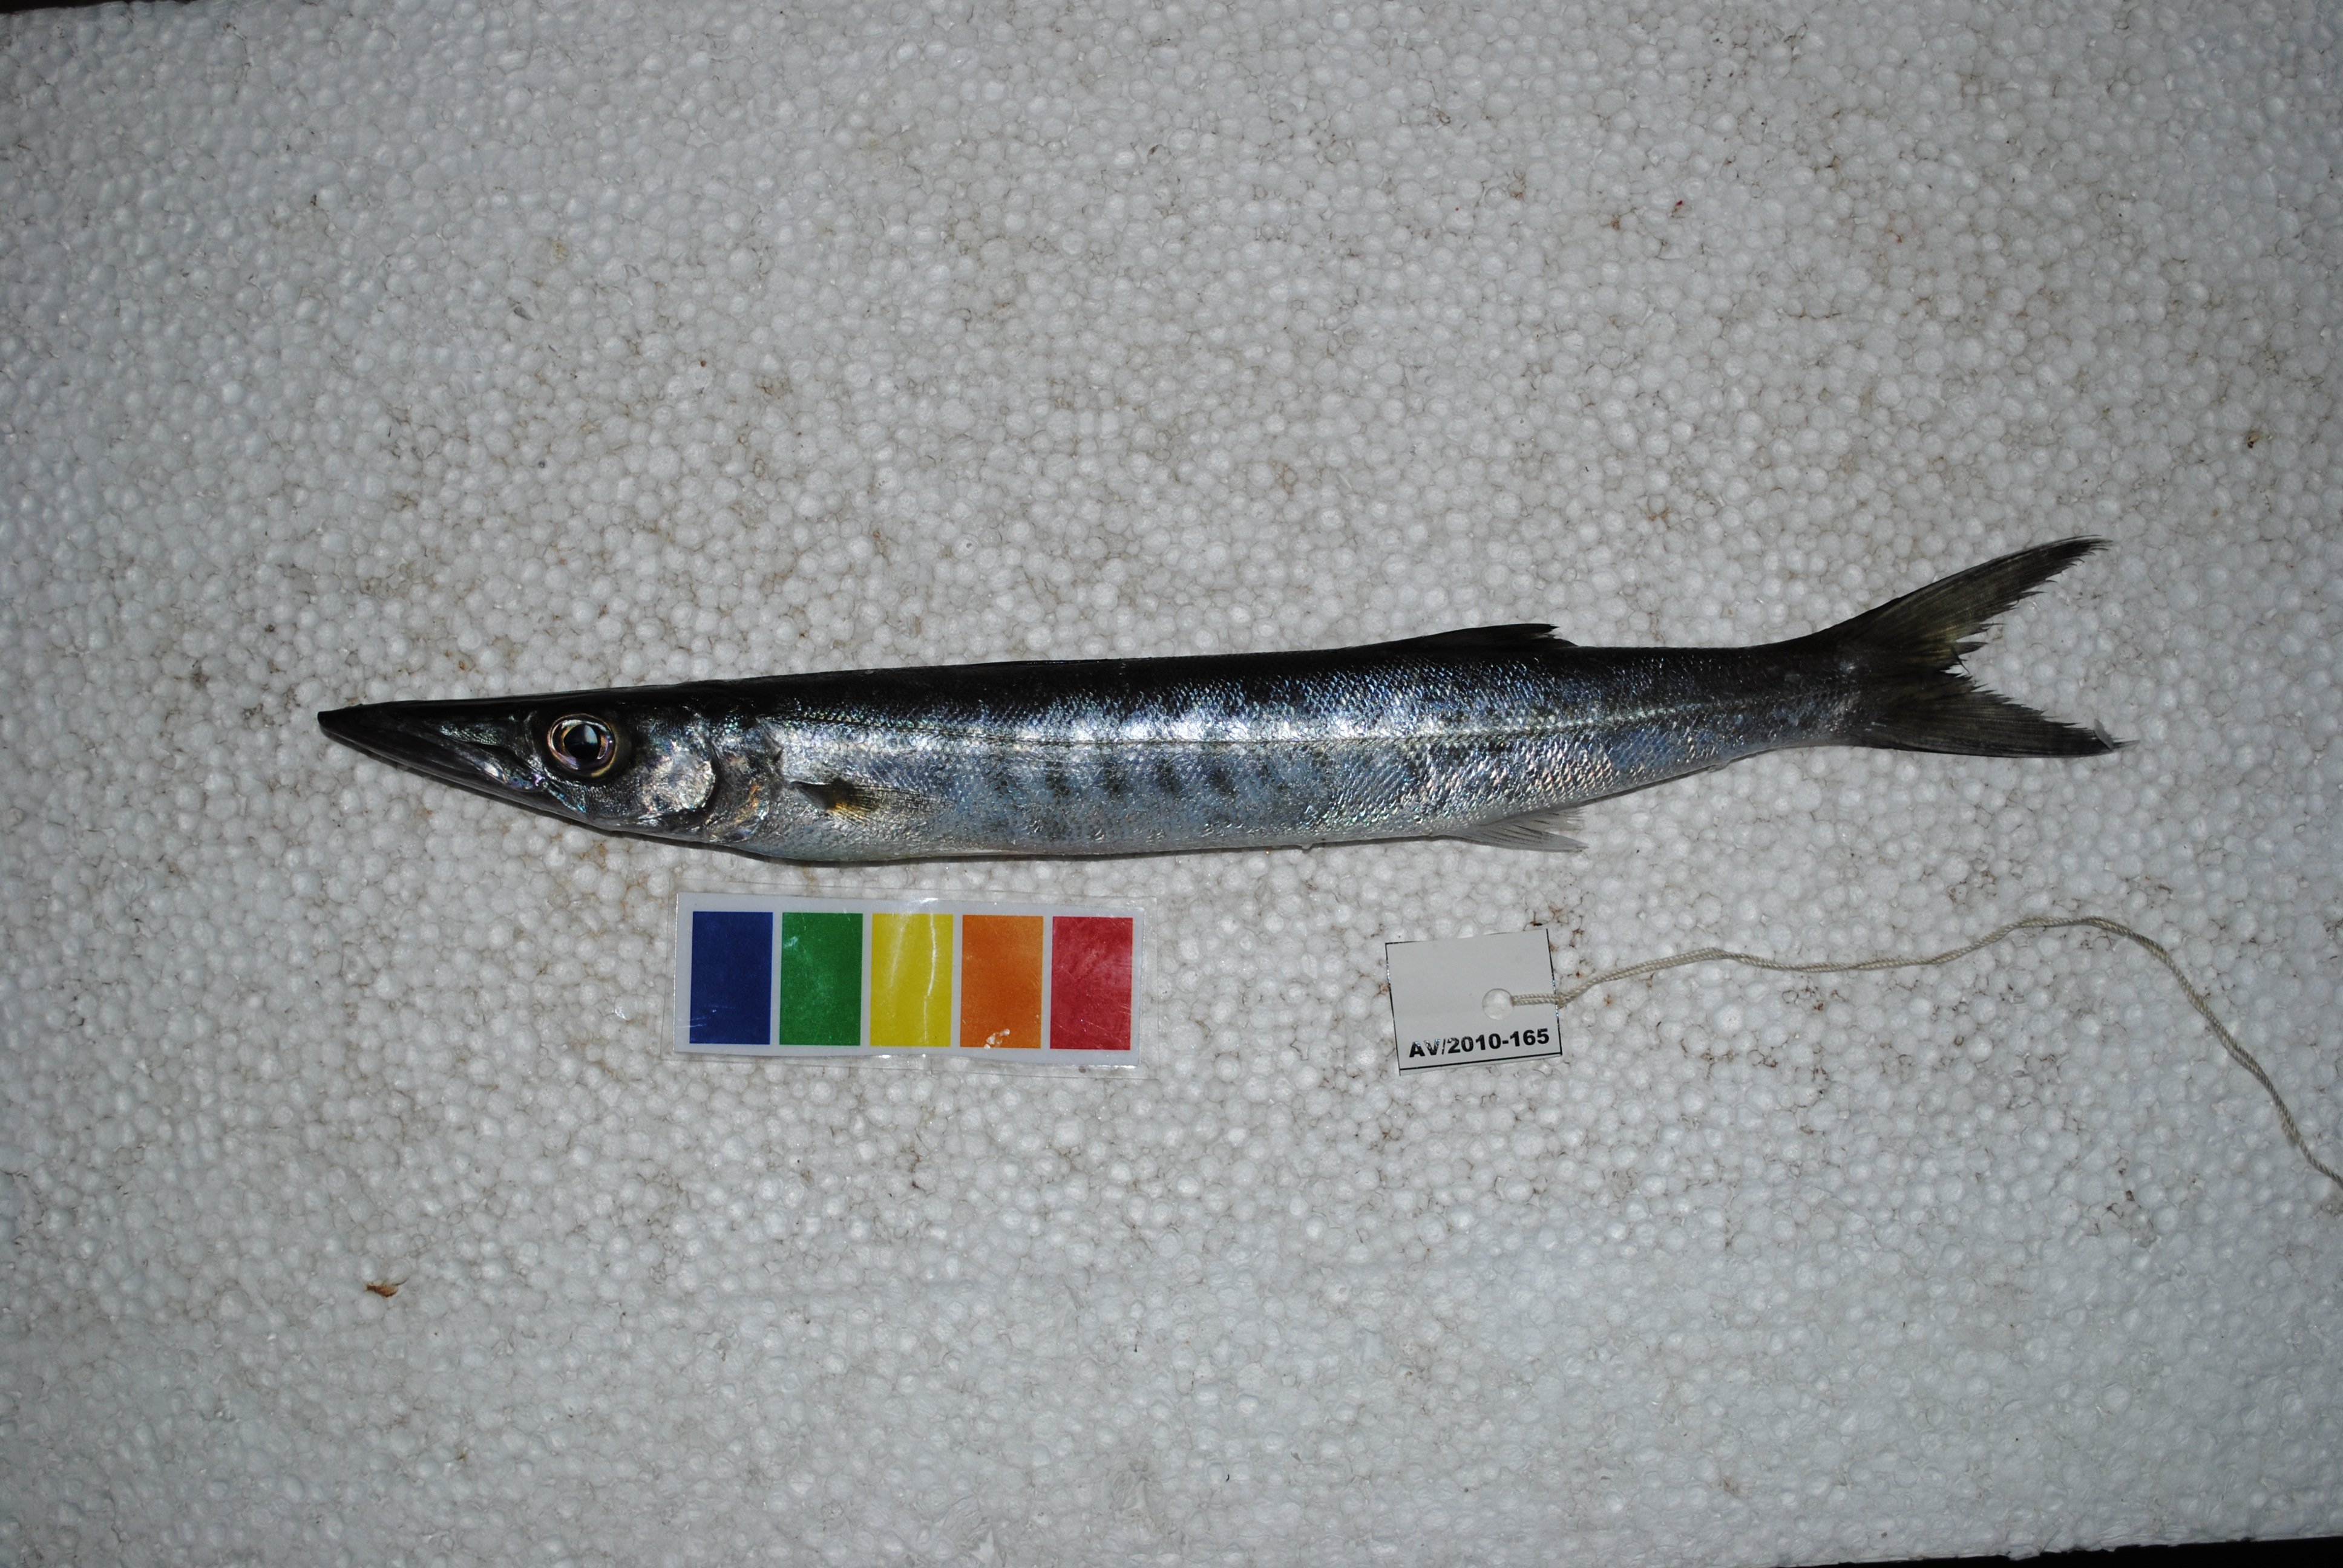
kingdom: Animalia
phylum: Chordata
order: Perciformes
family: Sphyraenidae
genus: Sphyraena
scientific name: Sphyraena
